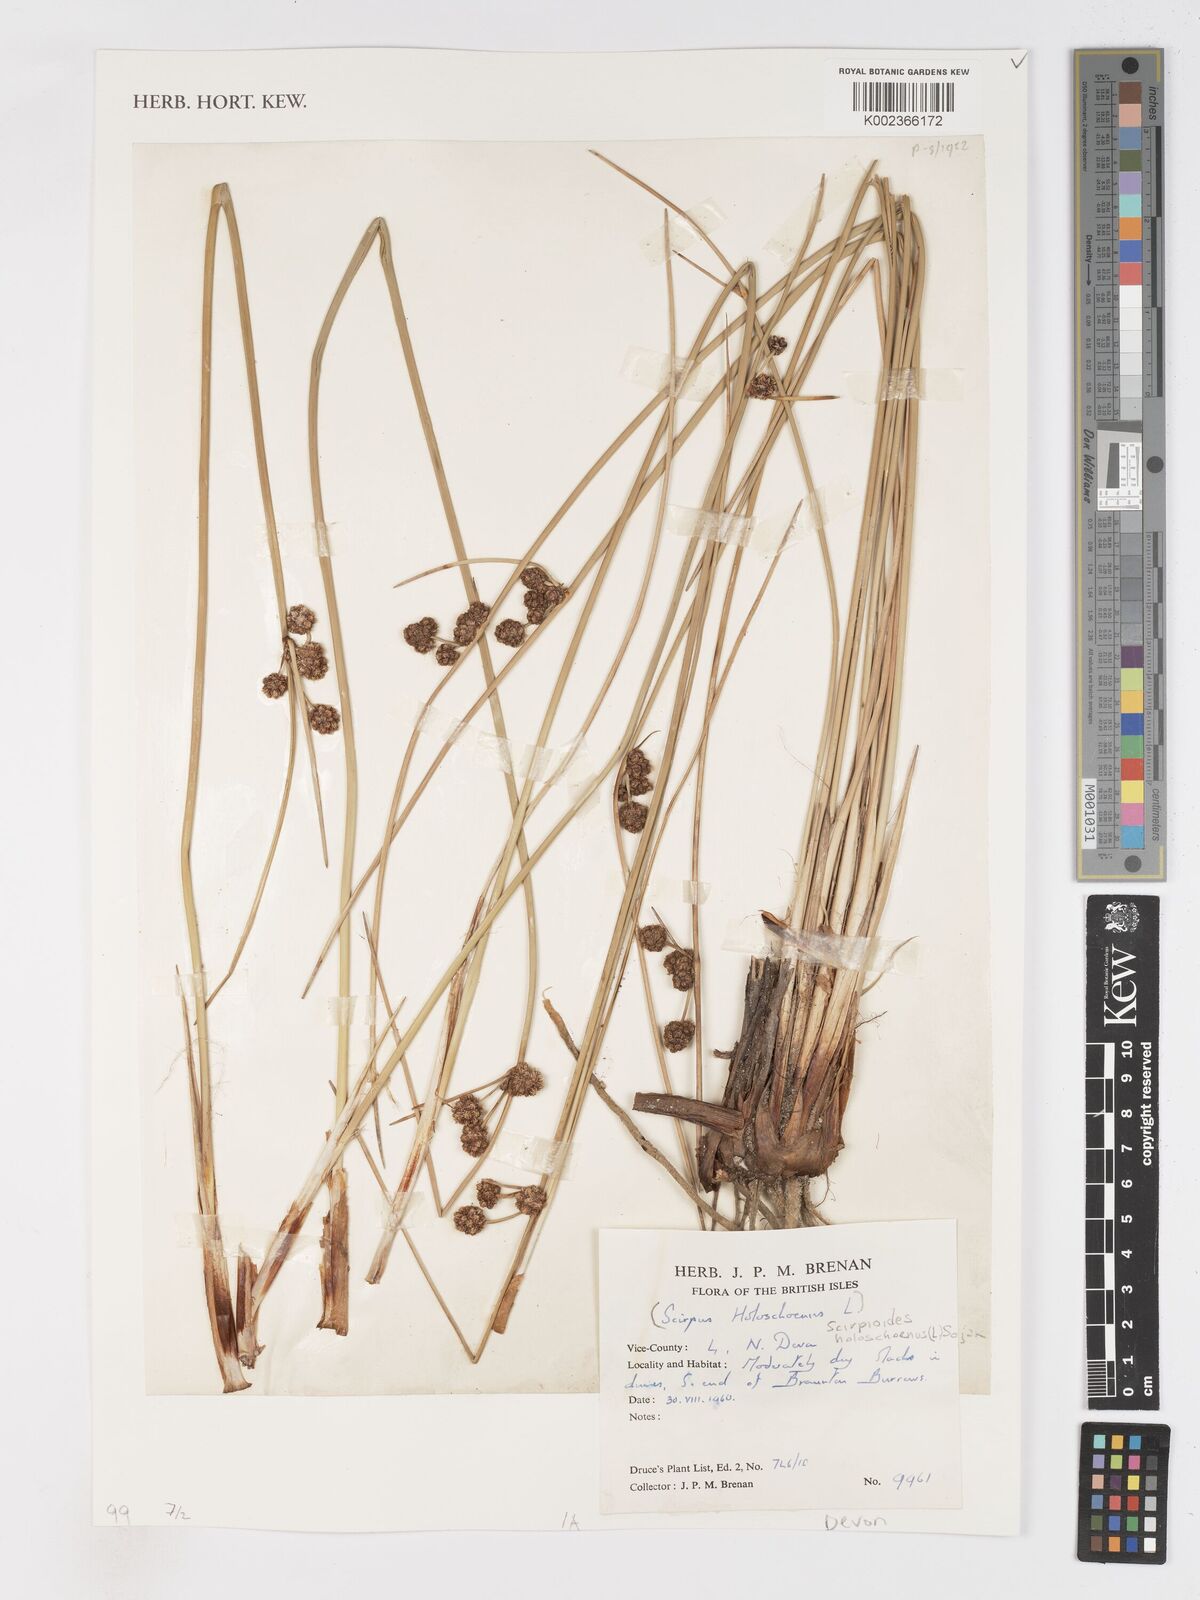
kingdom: Plantae
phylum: Tracheophyta
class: Liliopsida
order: Poales
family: Cyperaceae
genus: Scirpoides
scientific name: Scirpoides holoschoenus
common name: Round-headed club-rush
